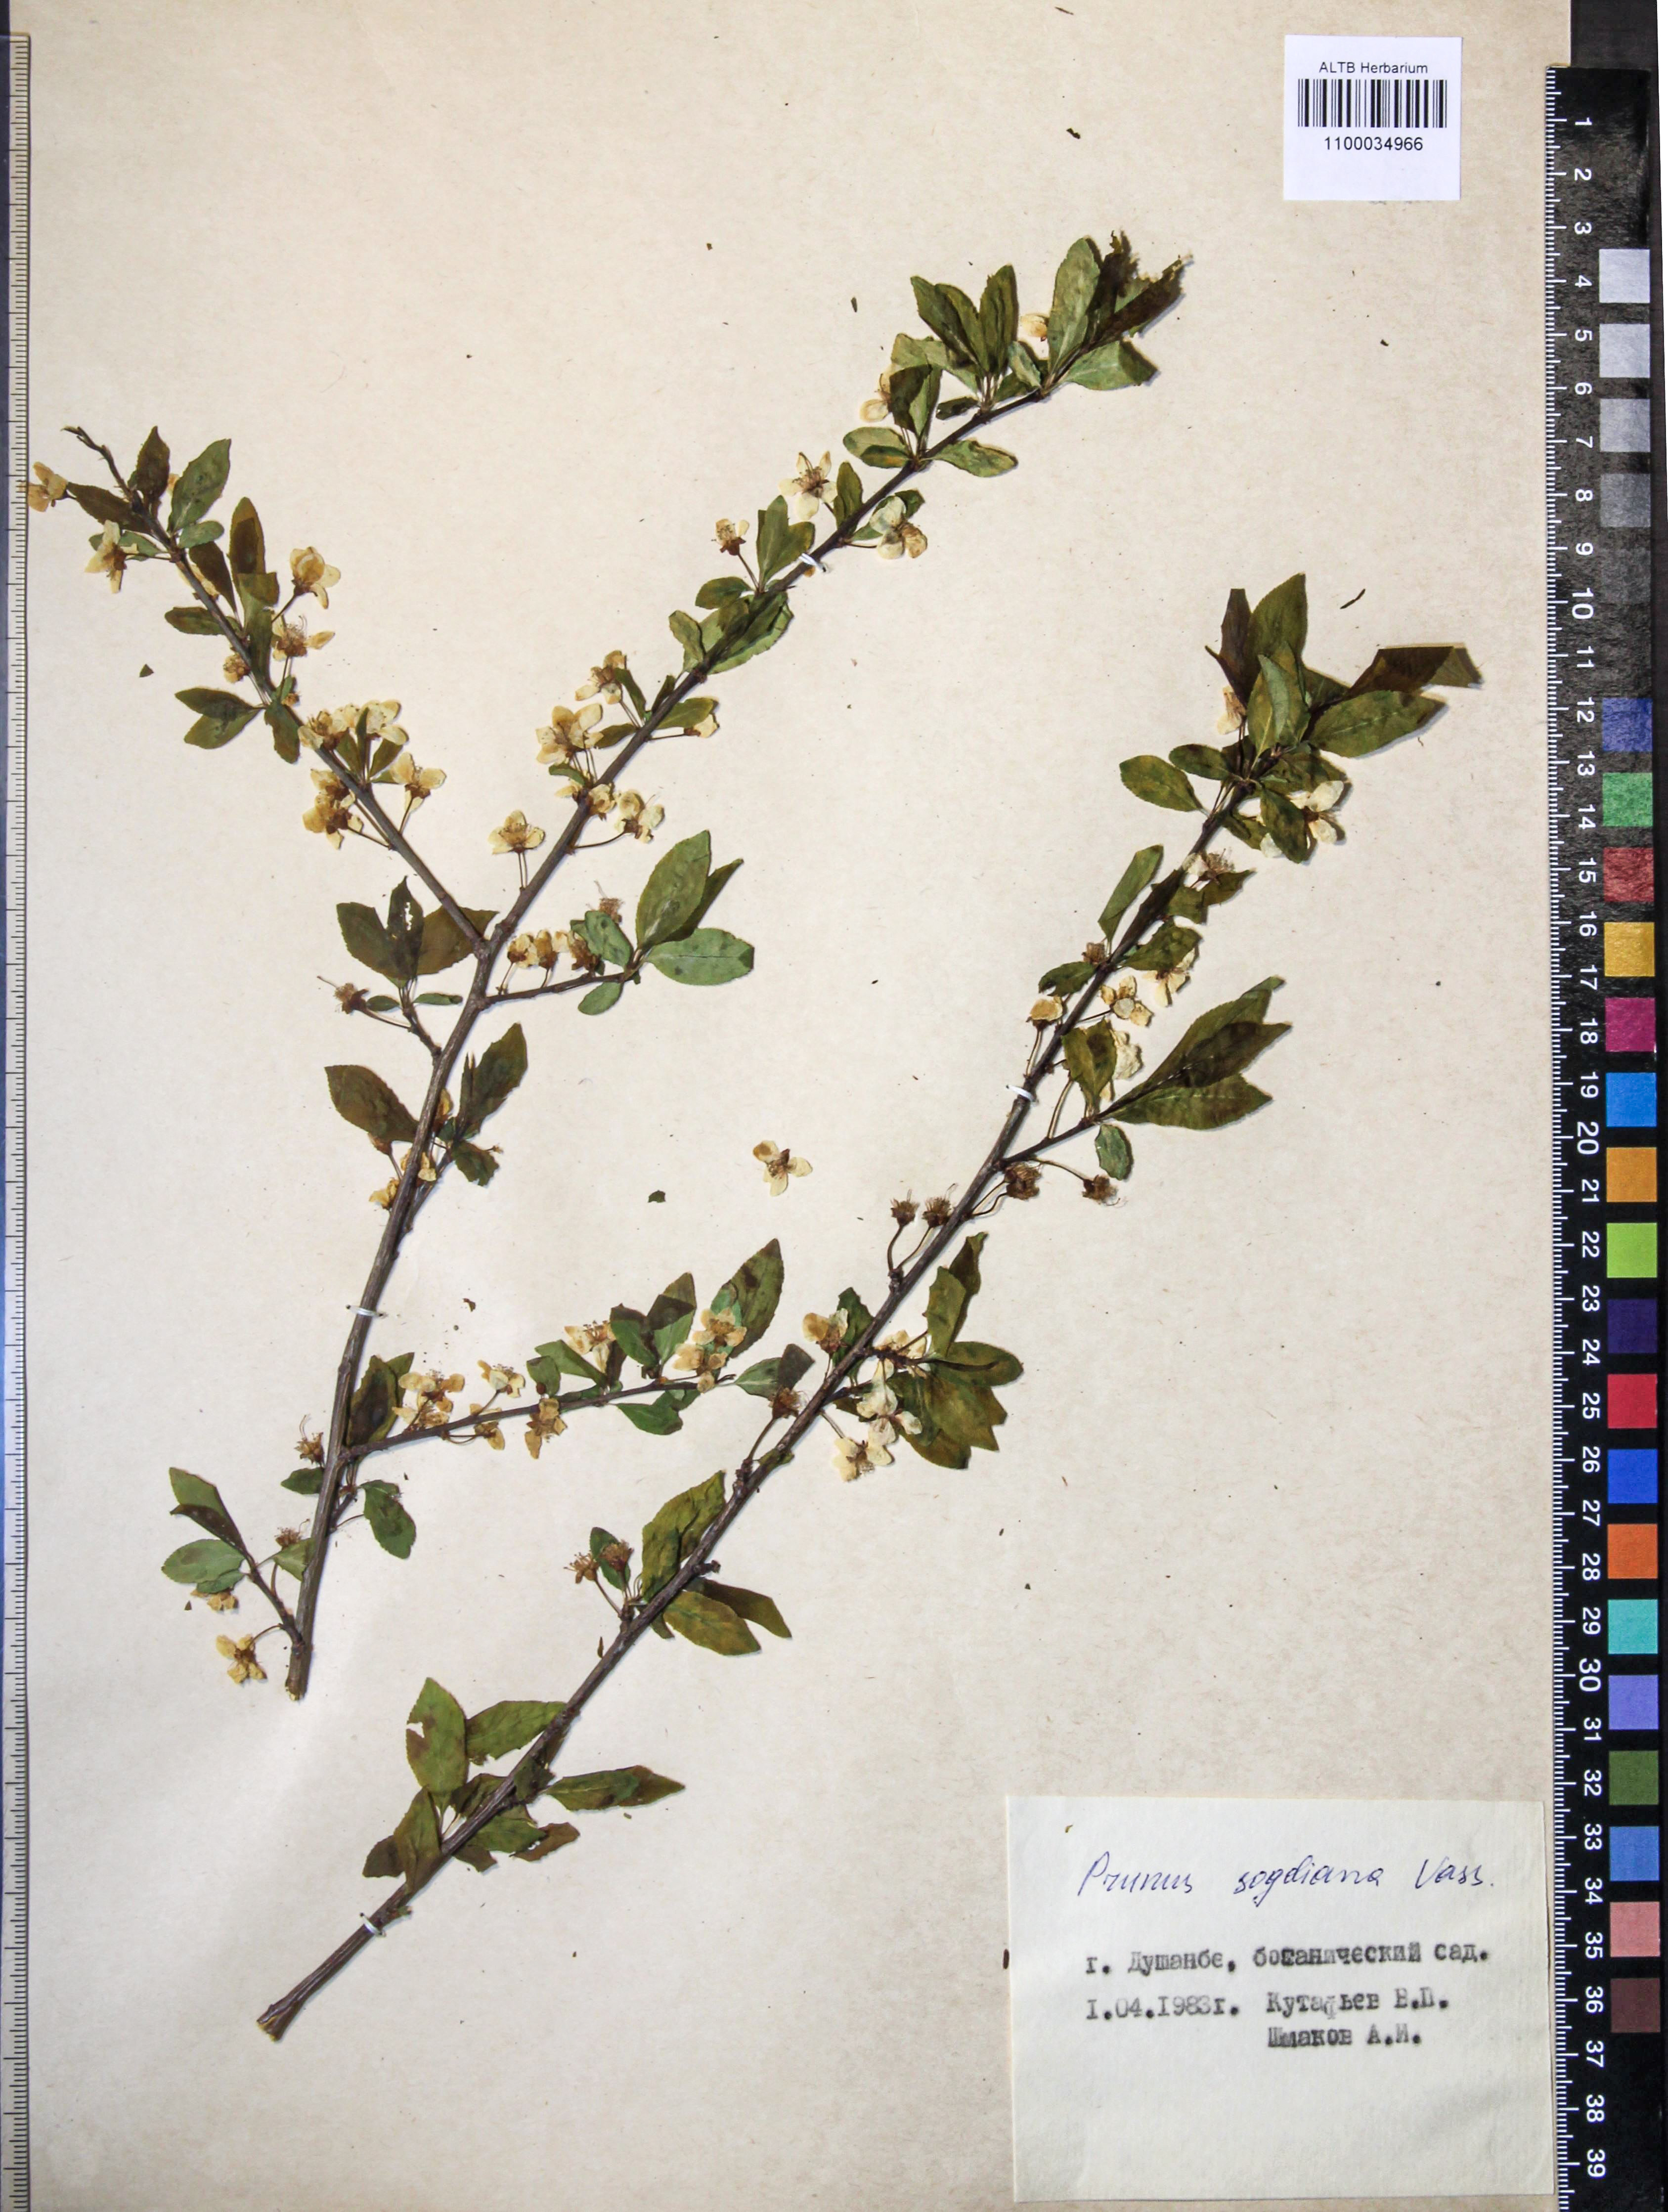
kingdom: Plantae
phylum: Tracheophyta
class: Magnoliopsida
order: Rosales
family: Rosaceae
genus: Prunus
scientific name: Prunus cerasifera
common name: Cherry plum
